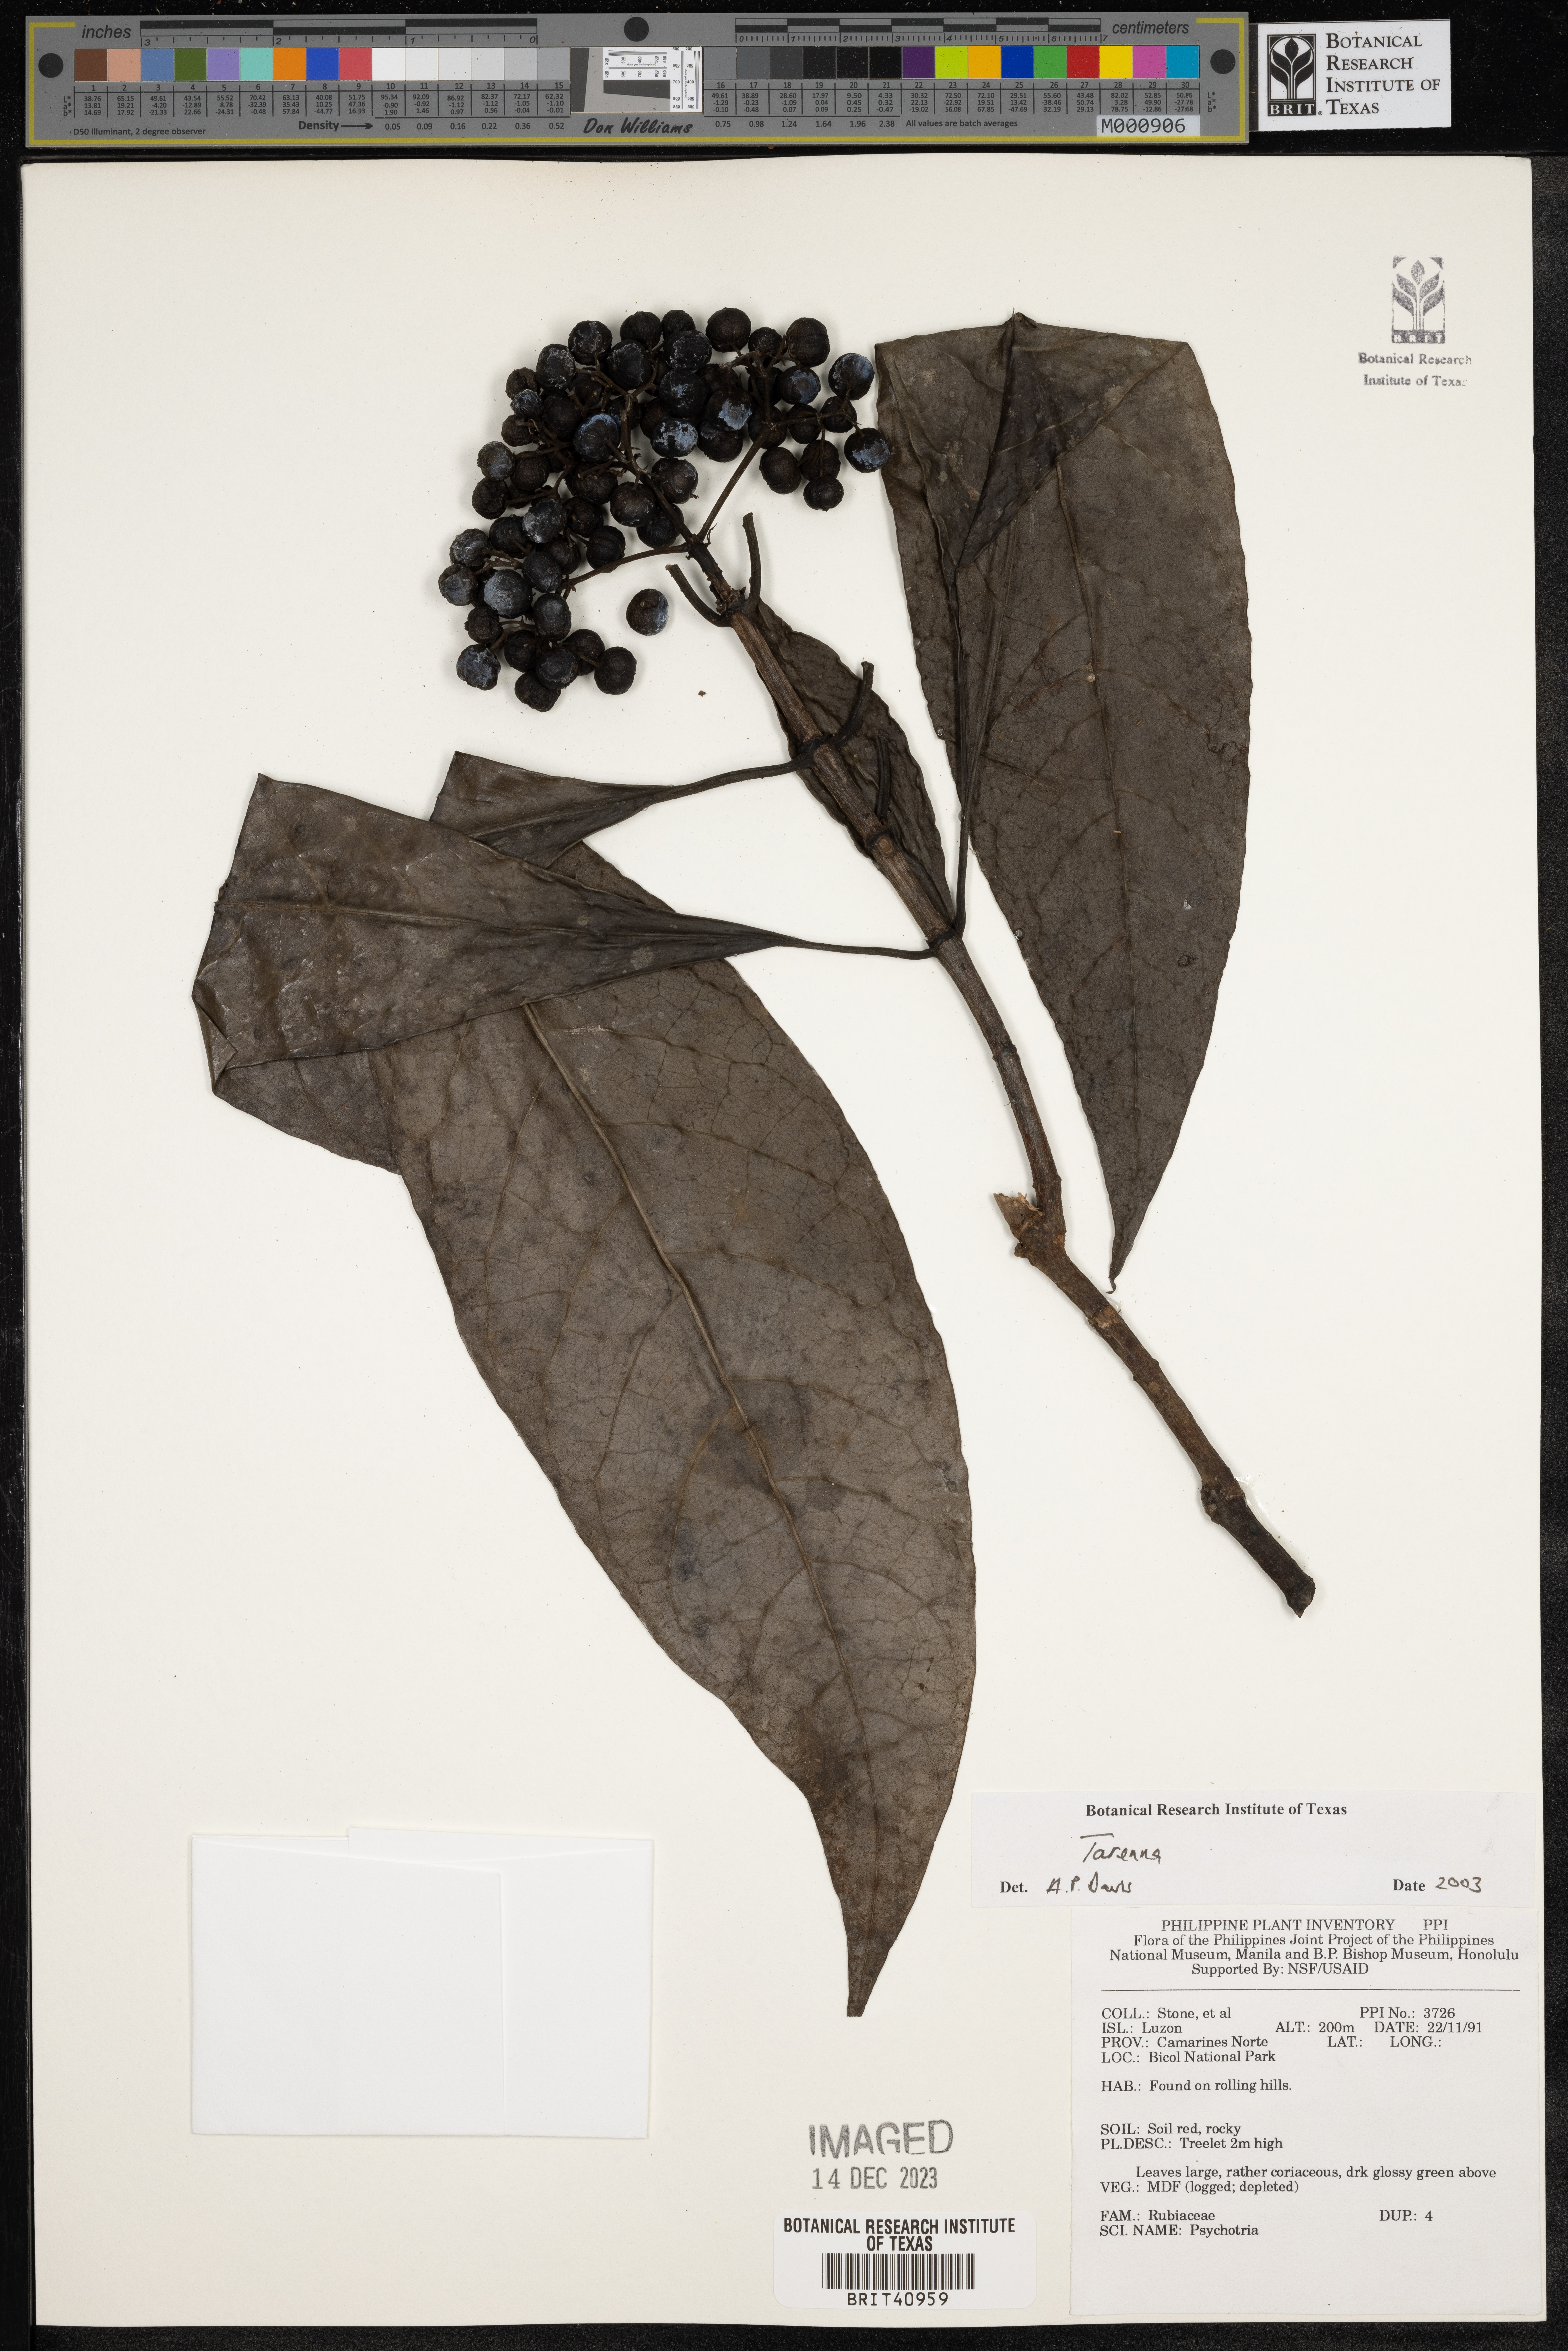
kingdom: Plantae
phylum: Tracheophyta
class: Magnoliopsida
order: Gentianales
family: Rubiaceae
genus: Tarenna
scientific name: Tarenna
